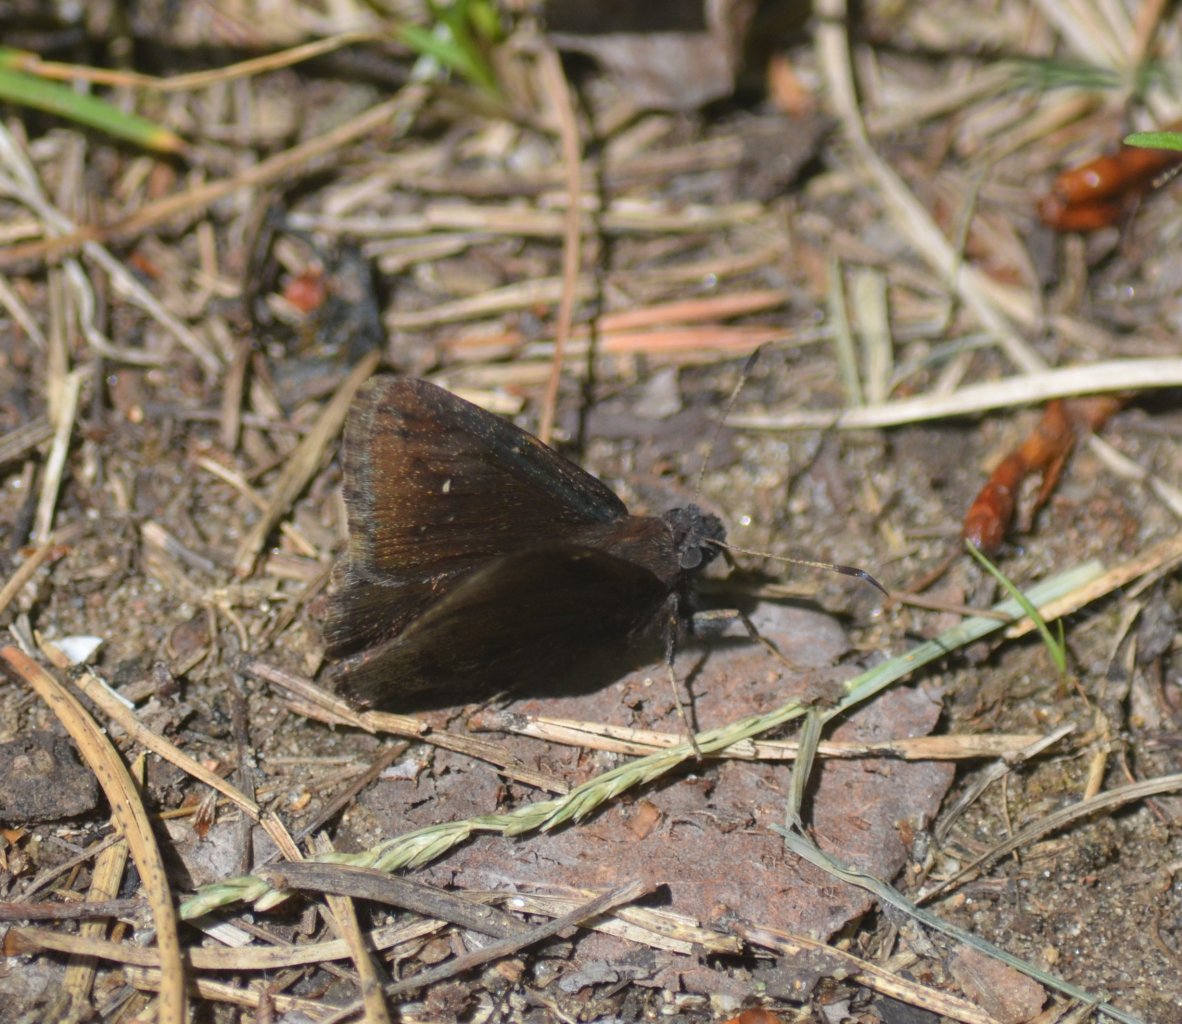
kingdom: Animalia
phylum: Arthropoda
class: Insecta
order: Lepidoptera
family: Hesperiidae
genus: Autochton
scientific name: Autochton
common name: Northern Cloudywing
